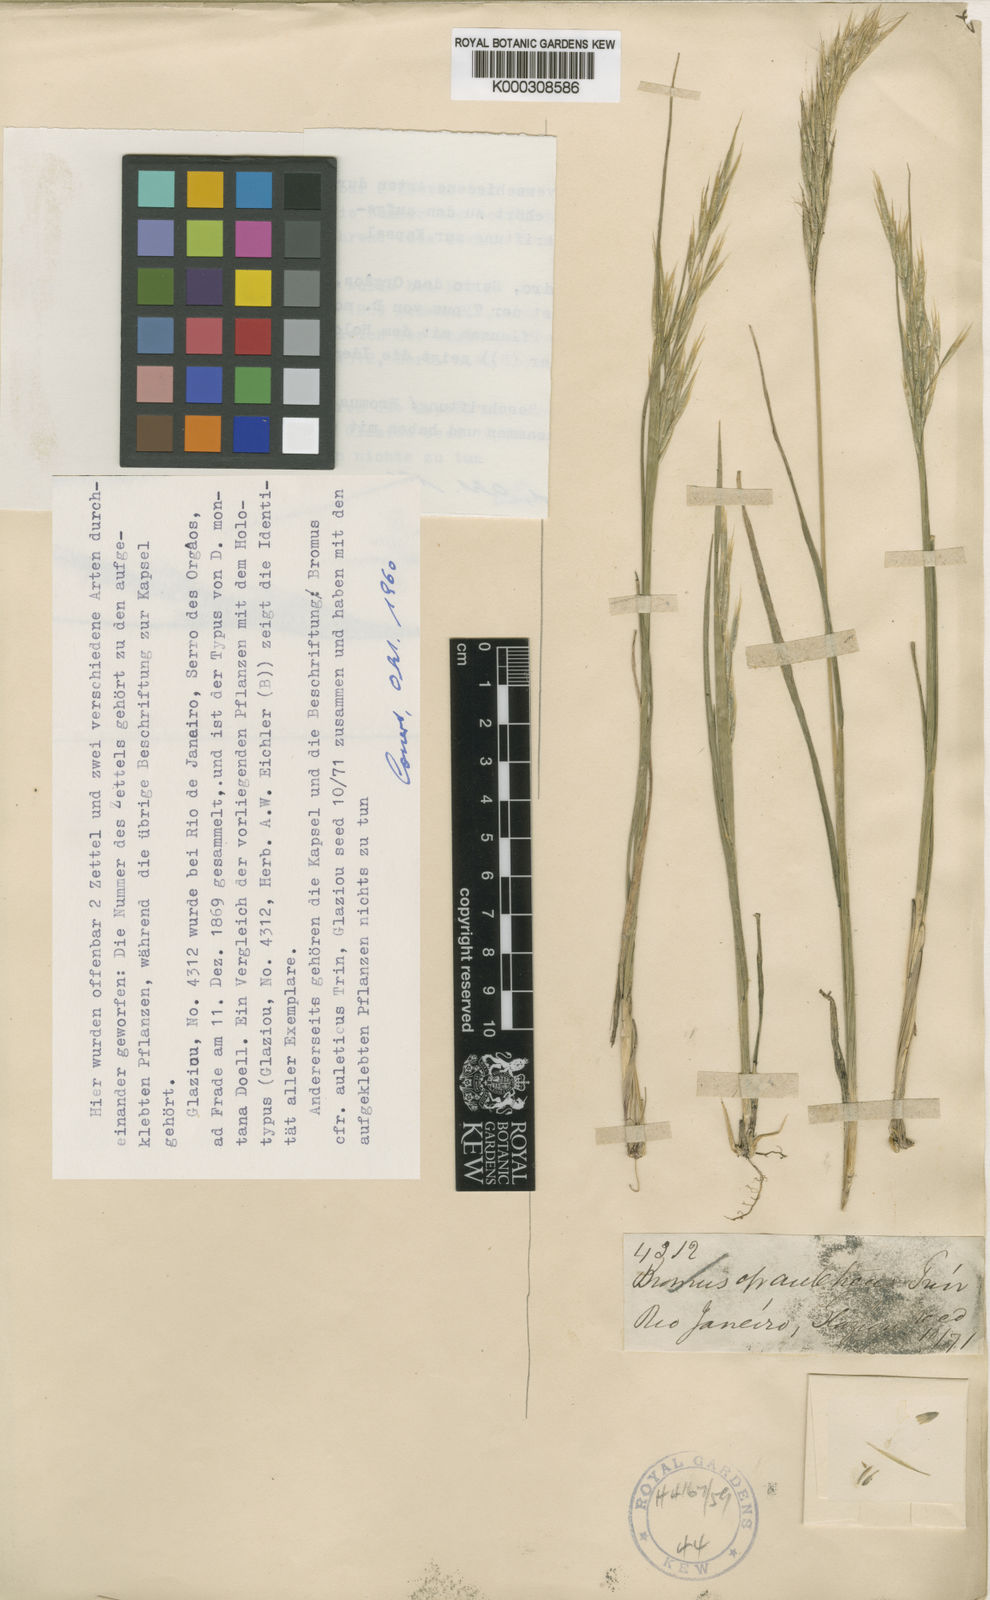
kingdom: Plantae
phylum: Tracheophyta
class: Liliopsida
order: Poales
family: Poaceae
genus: Danthonia
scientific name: Danthonia
